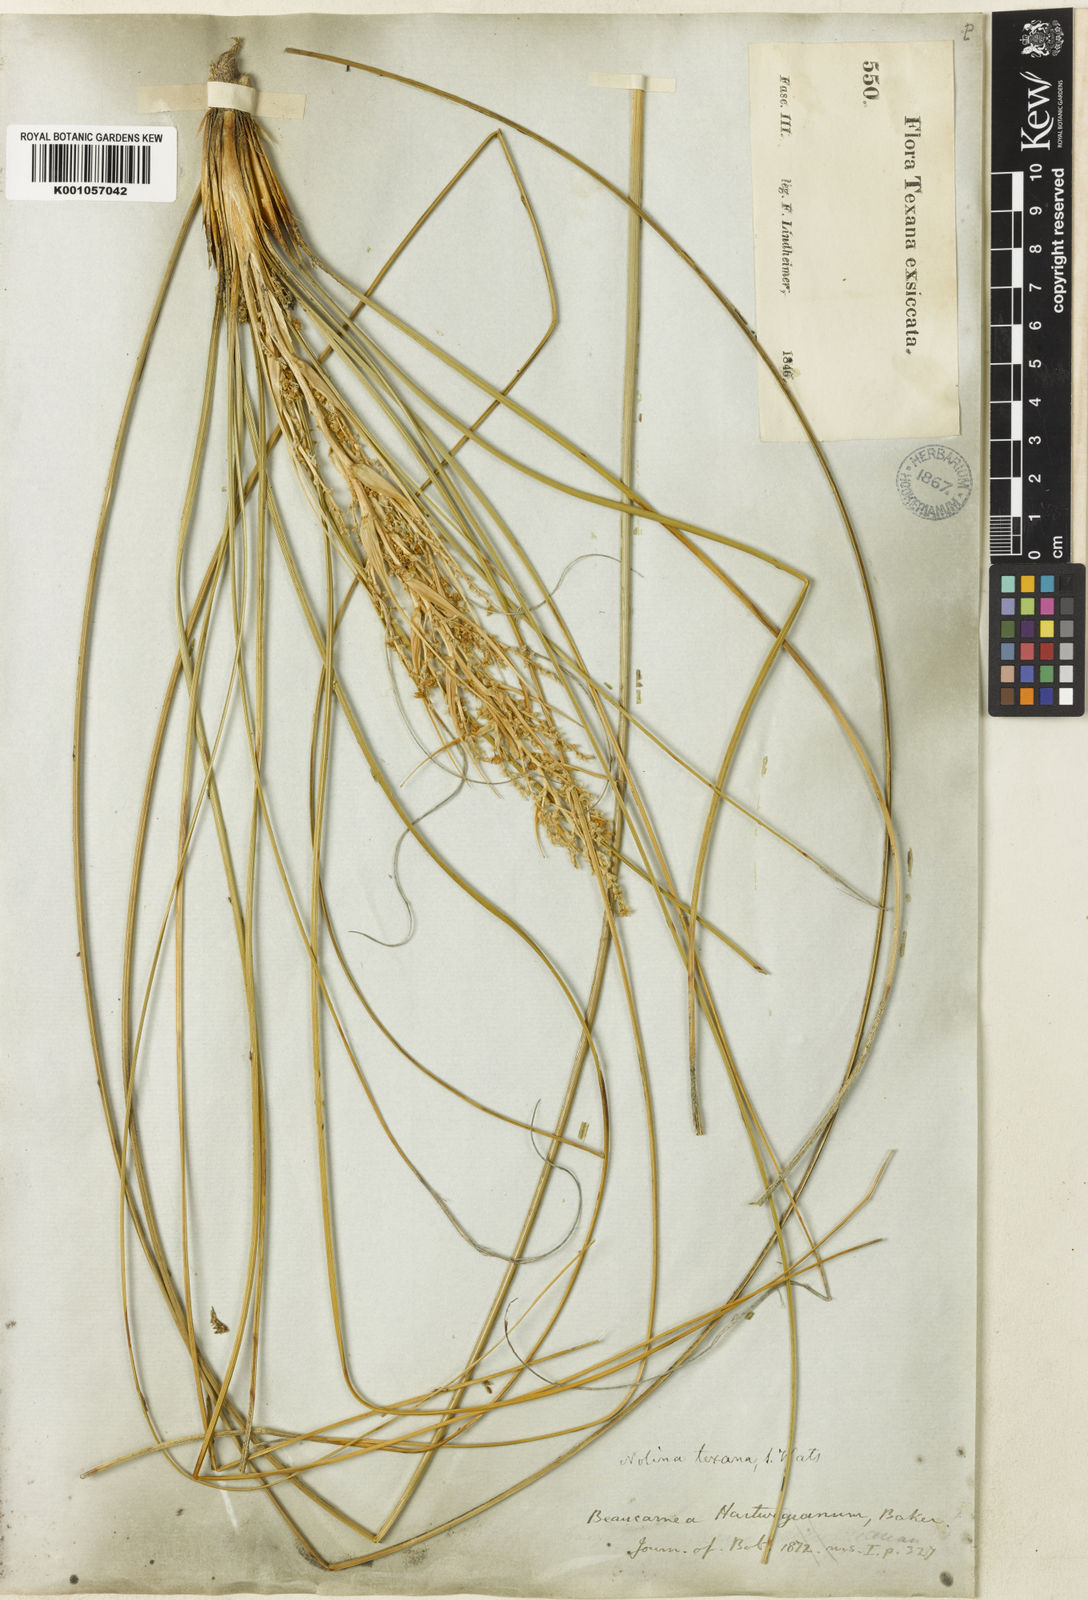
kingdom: Plantae
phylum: Tracheophyta
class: Liliopsida
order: Asparagales
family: Asparagaceae
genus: Nolina
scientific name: Nolina texana
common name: Texas sacahuiste
